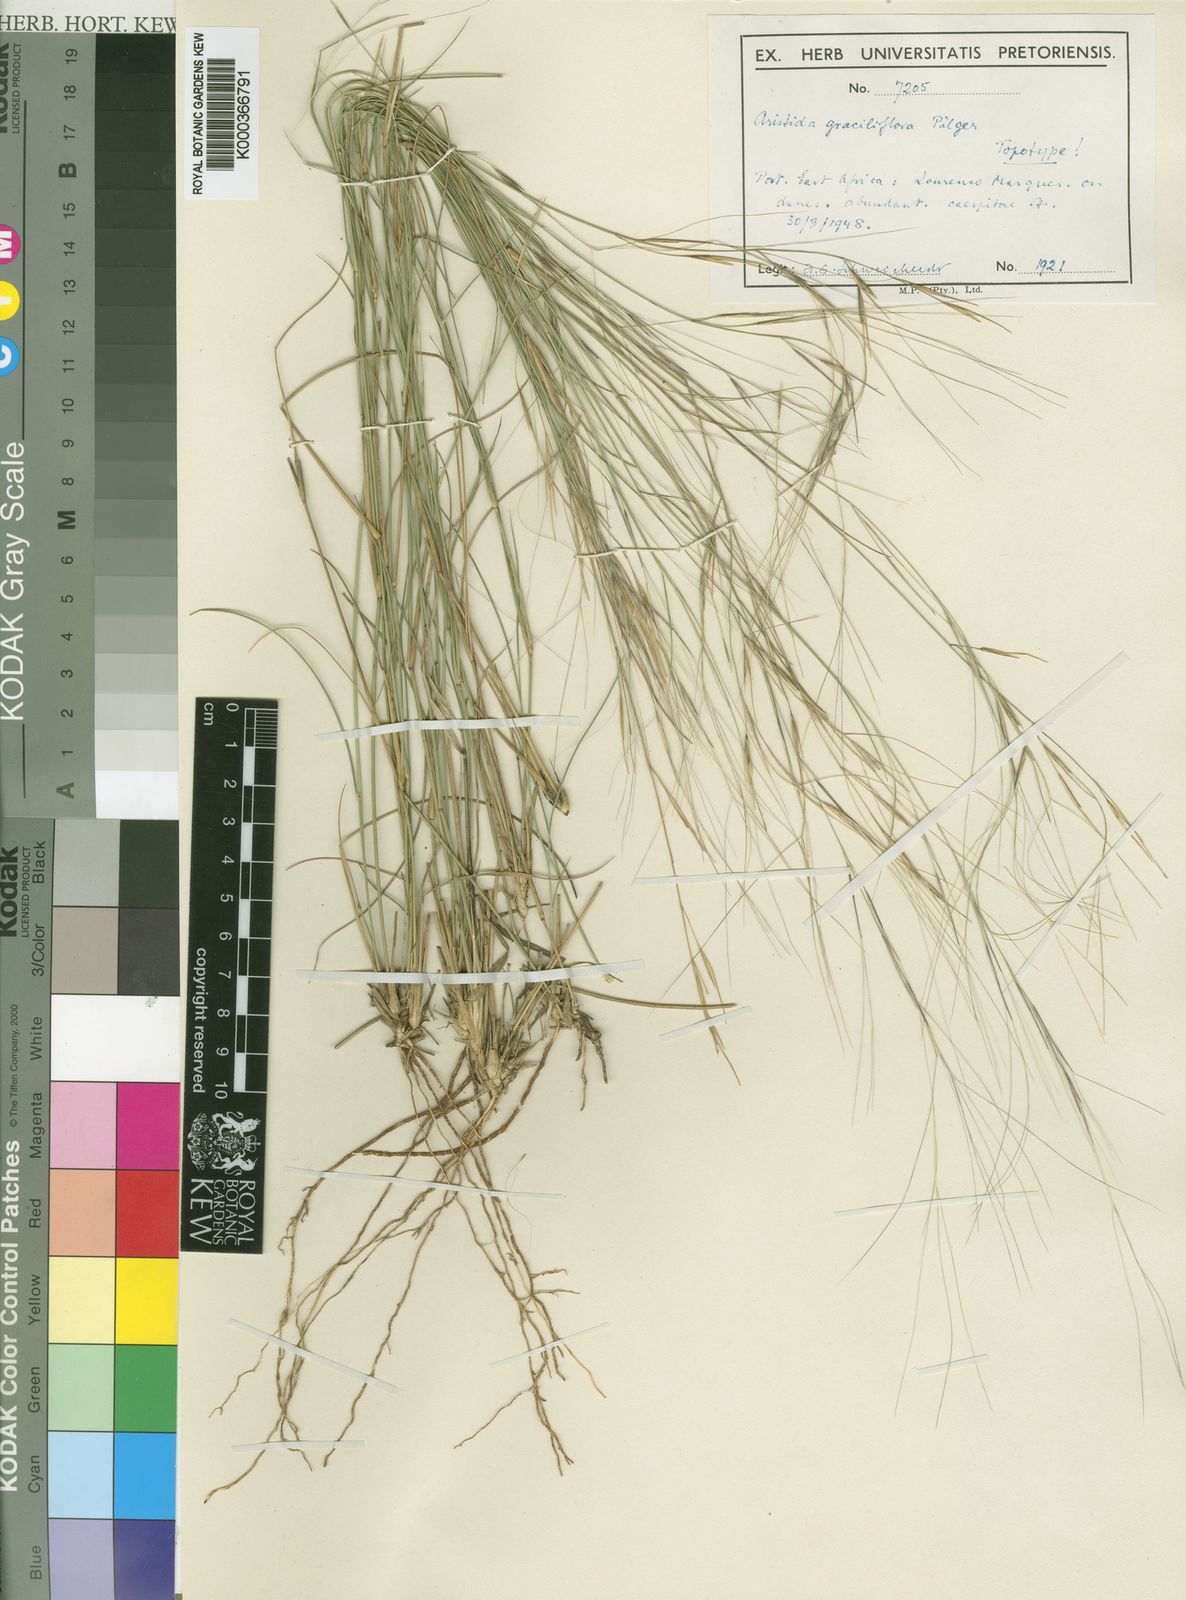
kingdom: Plantae
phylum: Tracheophyta
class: Liliopsida
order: Poales
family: Poaceae
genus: Aristida
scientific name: Aristida
